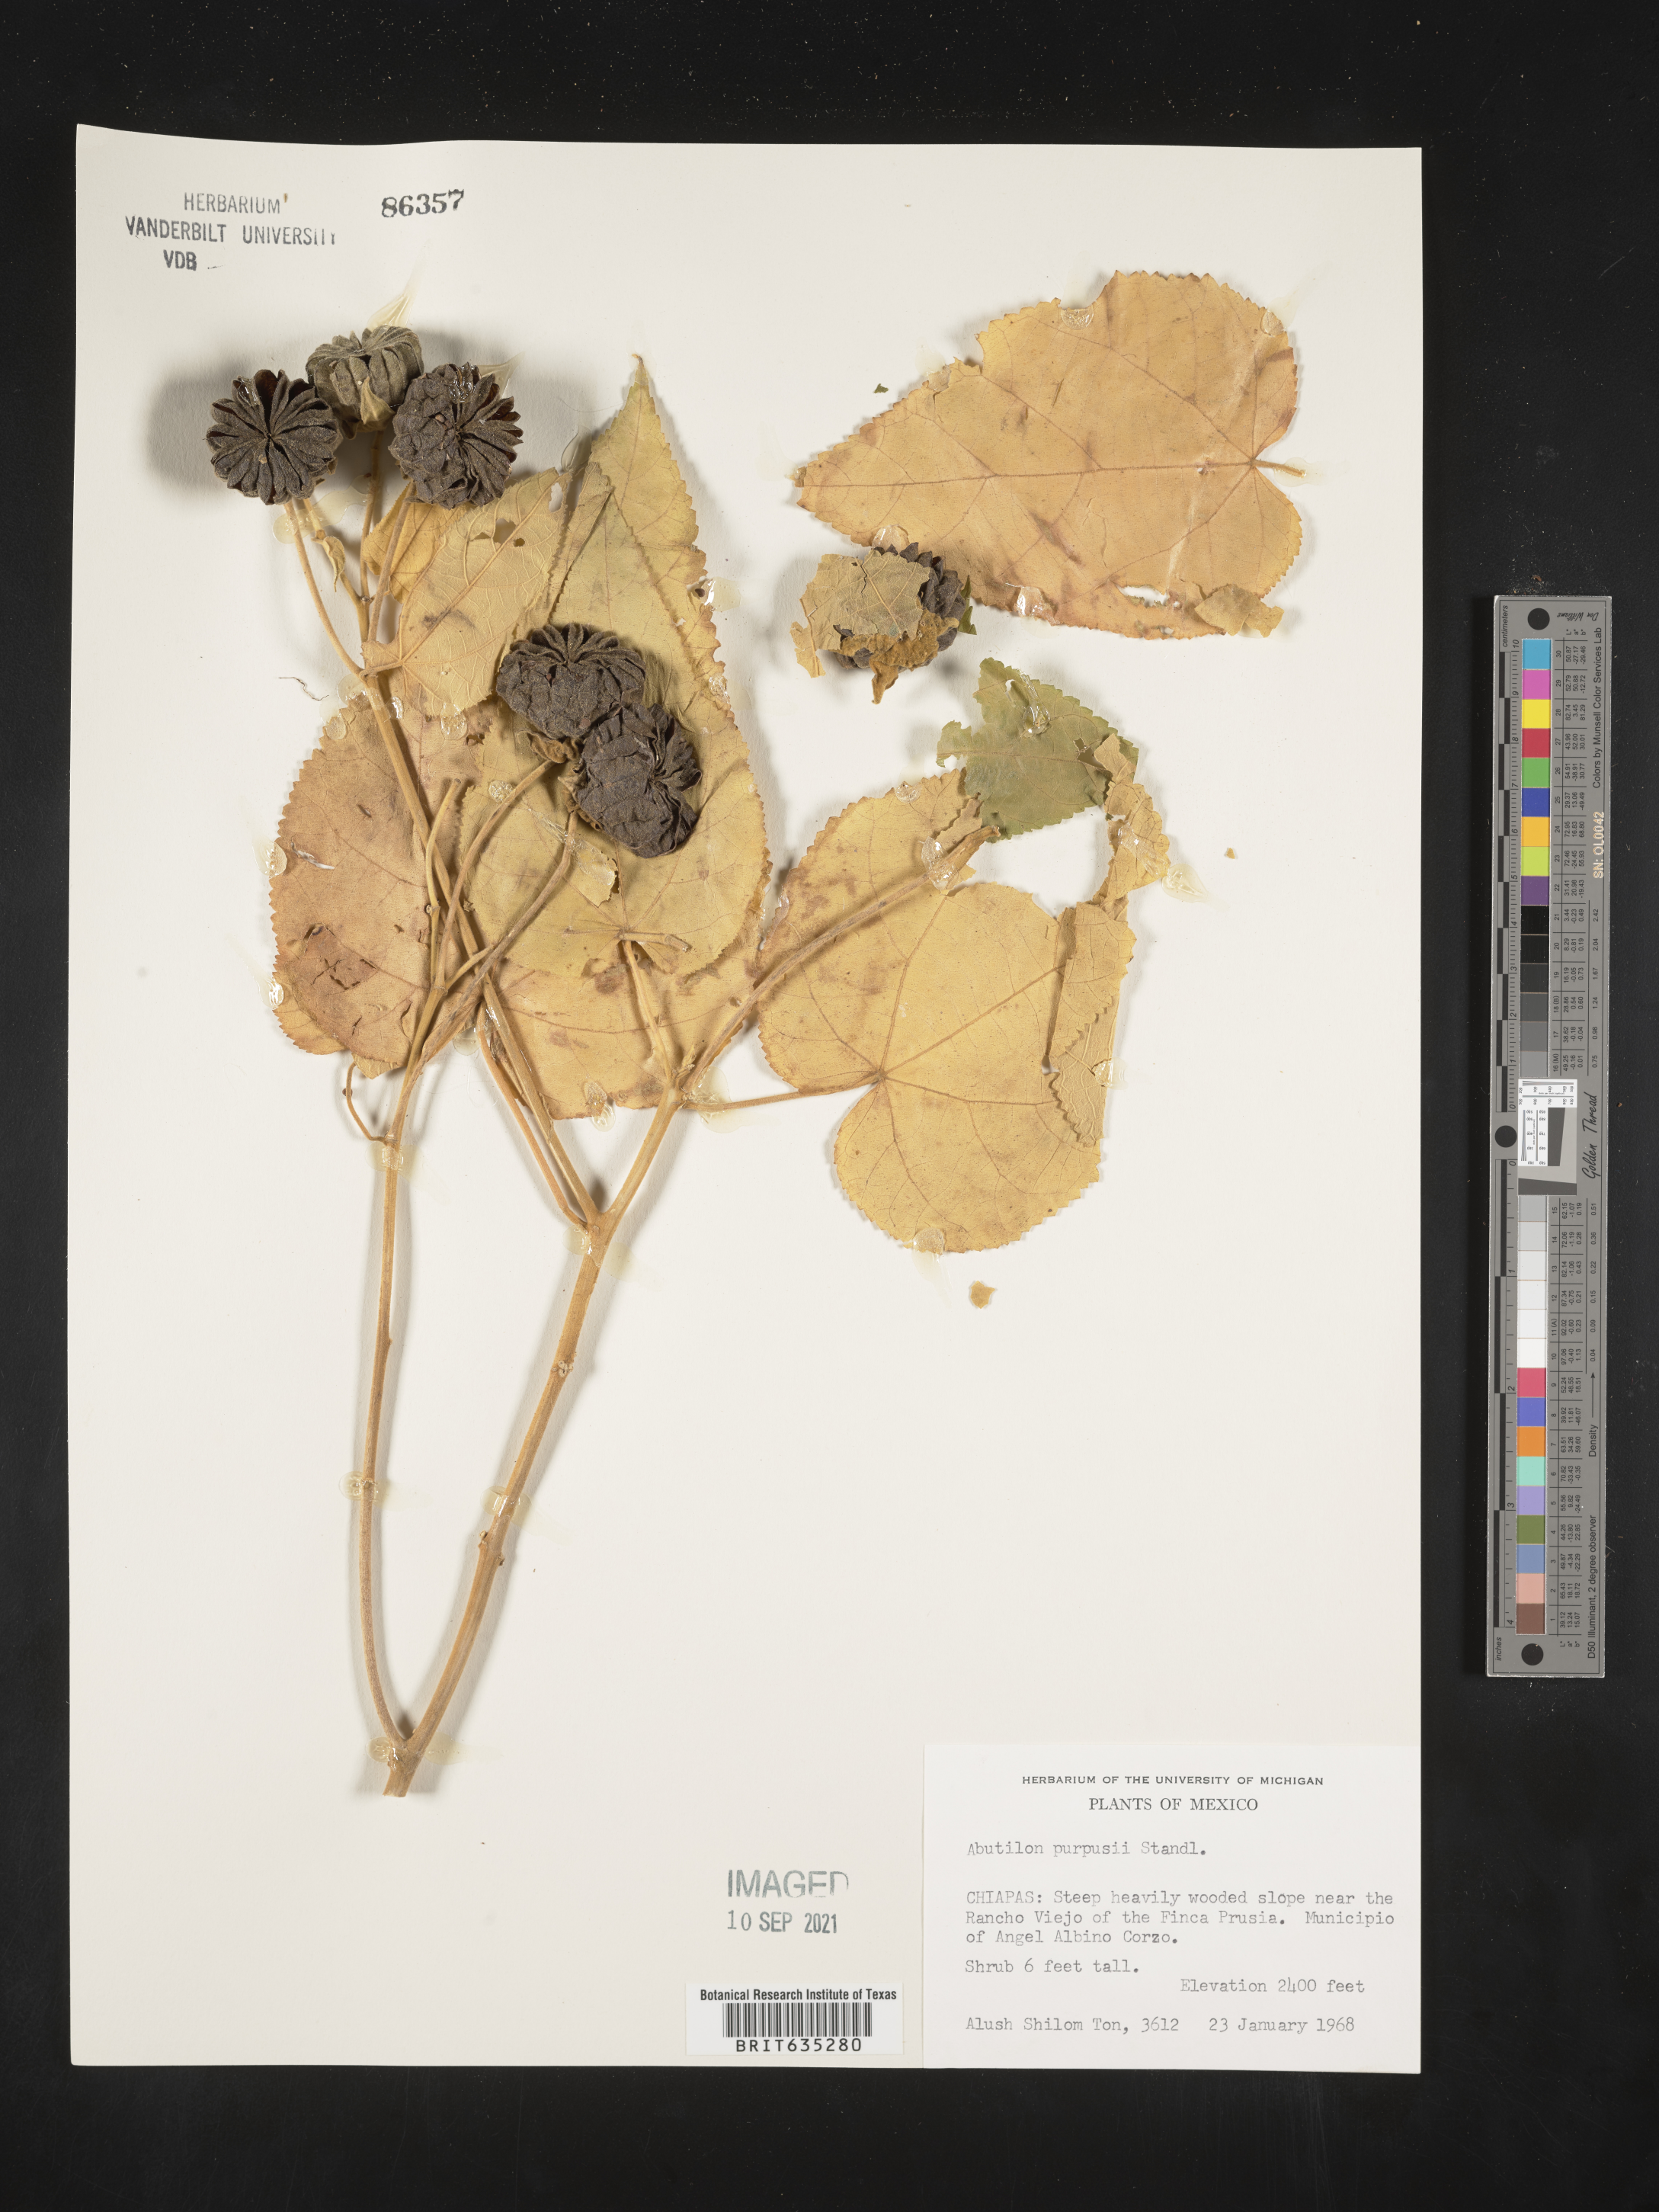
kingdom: Plantae
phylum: Tracheophyta
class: Magnoliopsida
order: Malvales
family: Malvaceae
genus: Abutilon
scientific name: Abutilon
